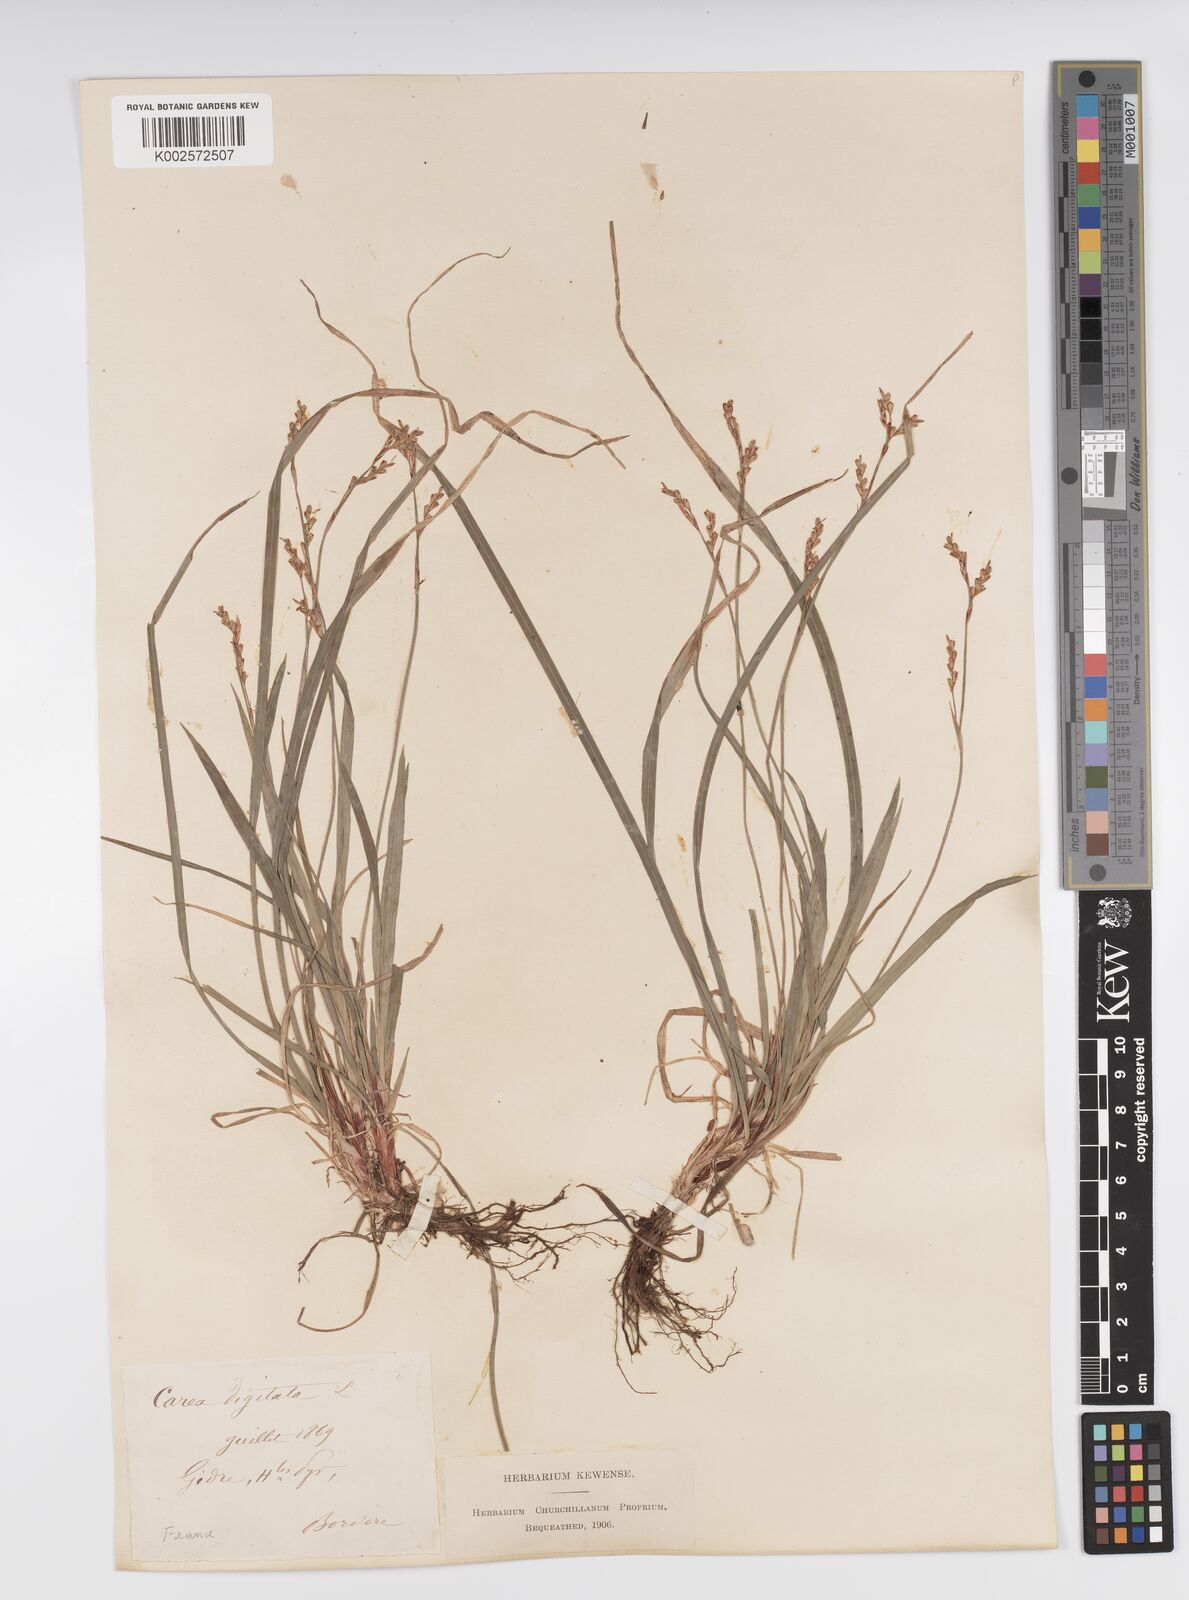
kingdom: Plantae
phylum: Tracheophyta
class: Liliopsida
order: Poales
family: Cyperaceae
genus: Carex
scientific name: Carex digitata
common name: Fingered sedge
